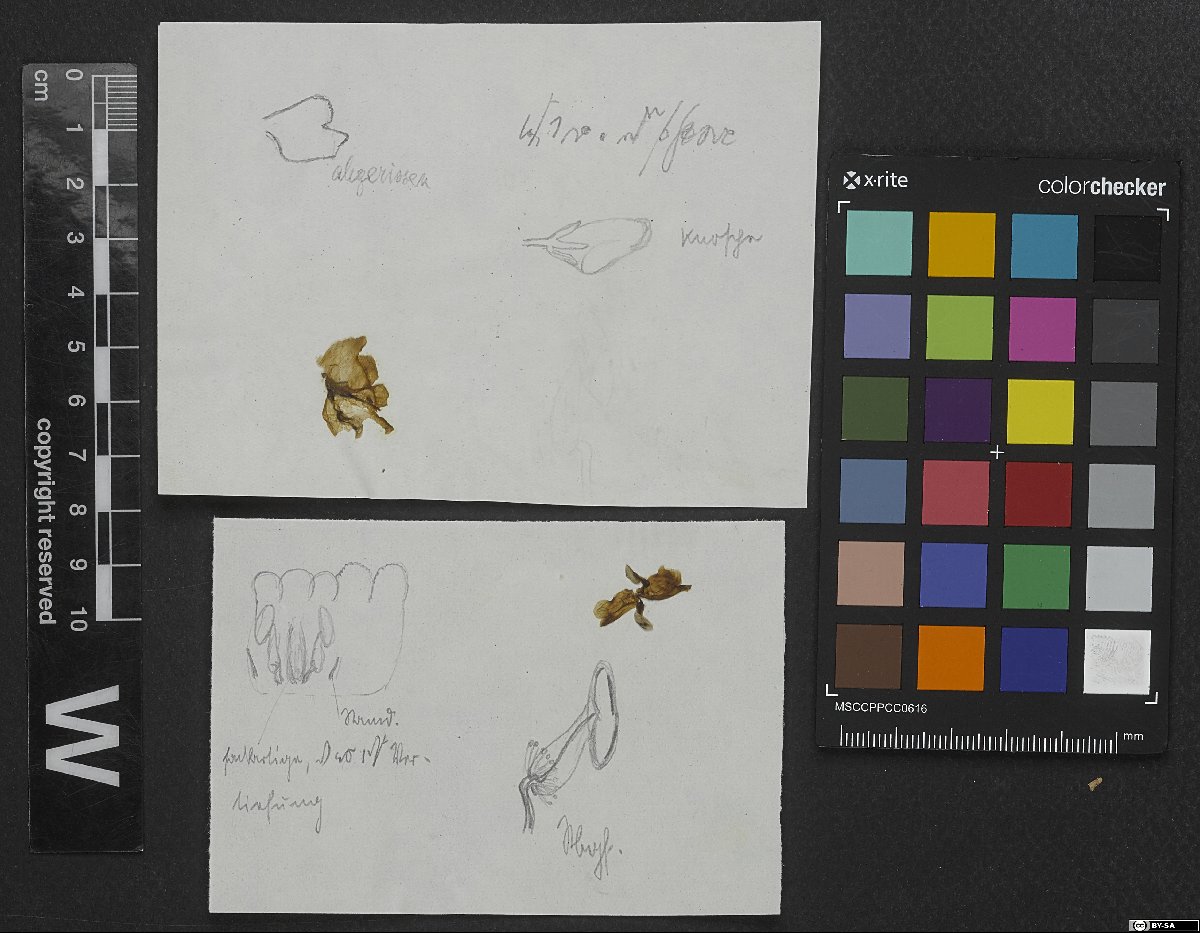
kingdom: Plantae
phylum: Tracheophyta
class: Magnoliopsida
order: Gentianales
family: Rubiaceae
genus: Cordylostigma
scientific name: Cordylostigma longifolium
